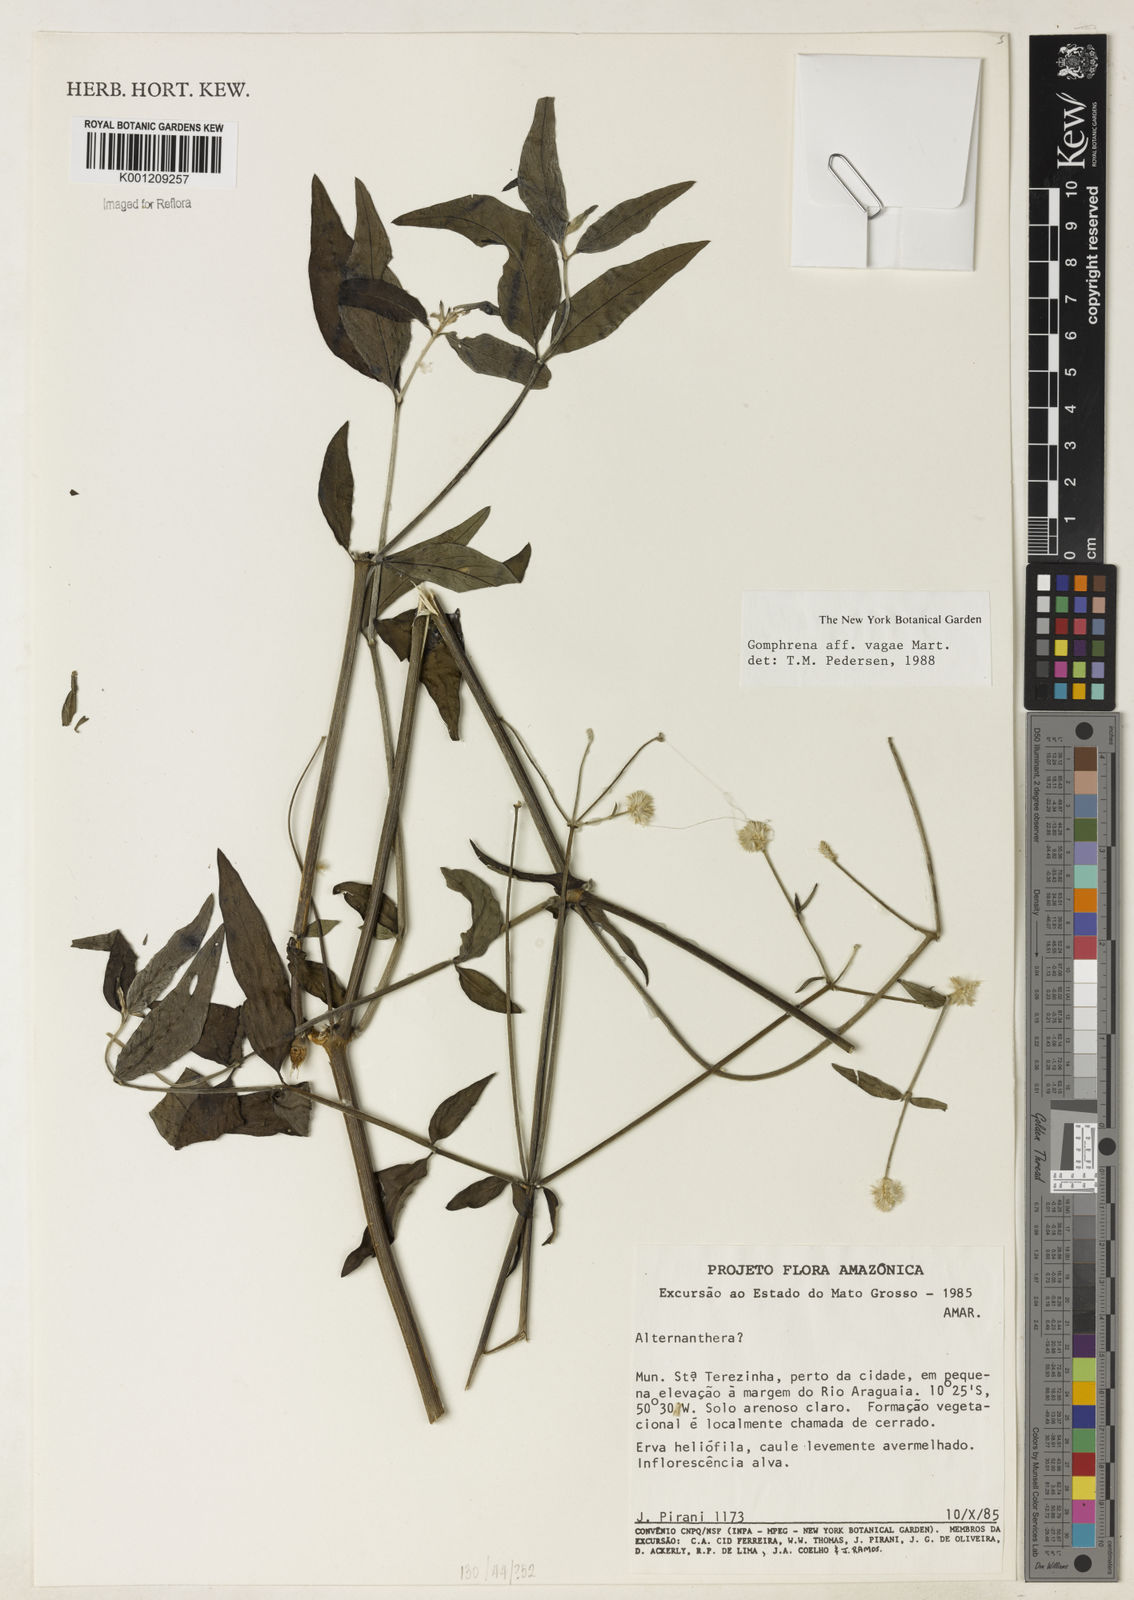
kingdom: Plantae
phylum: Tracheophyta
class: Magnoliopsida
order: Caryophyllales
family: Amaranthaceae
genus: Gomphrena
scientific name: Gomphrena vaga
